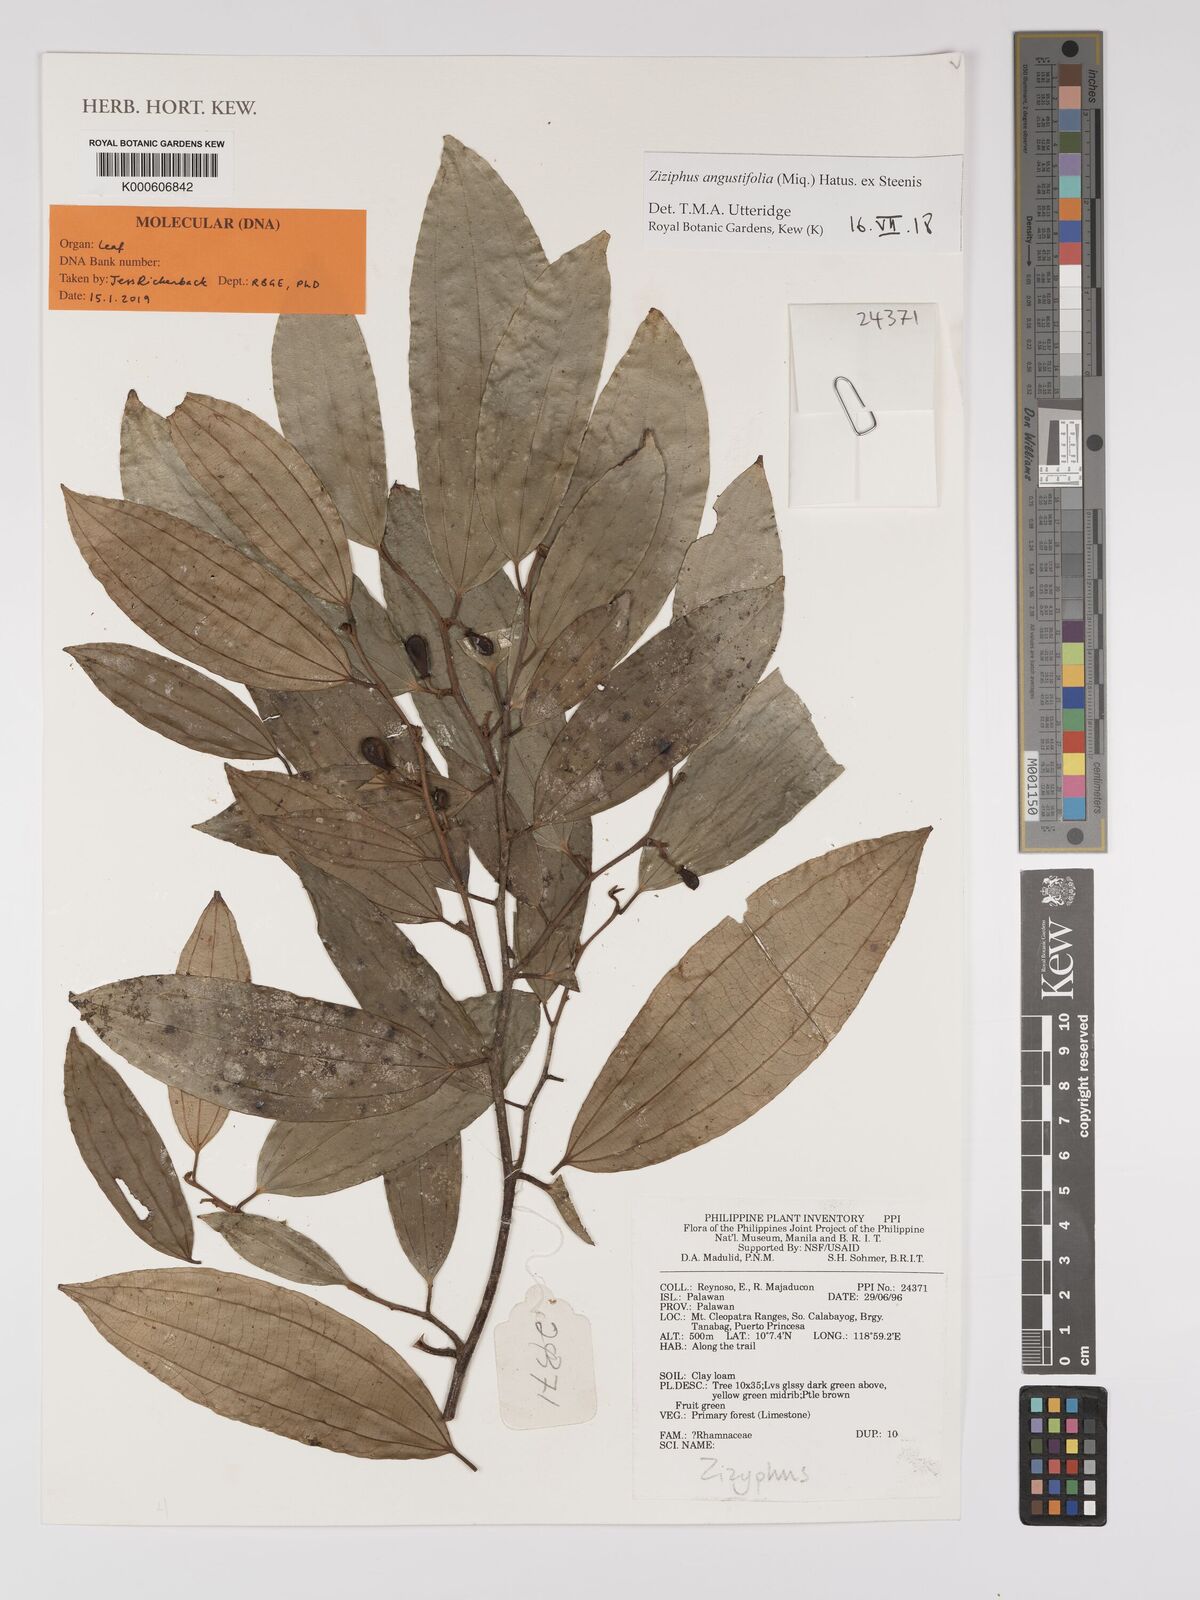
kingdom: Plantae
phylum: Tracheophyta
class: Magnoliopsida
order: Rosales
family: Rhamnaceae
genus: Ziziphus
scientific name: Ziziphus angustifolia
